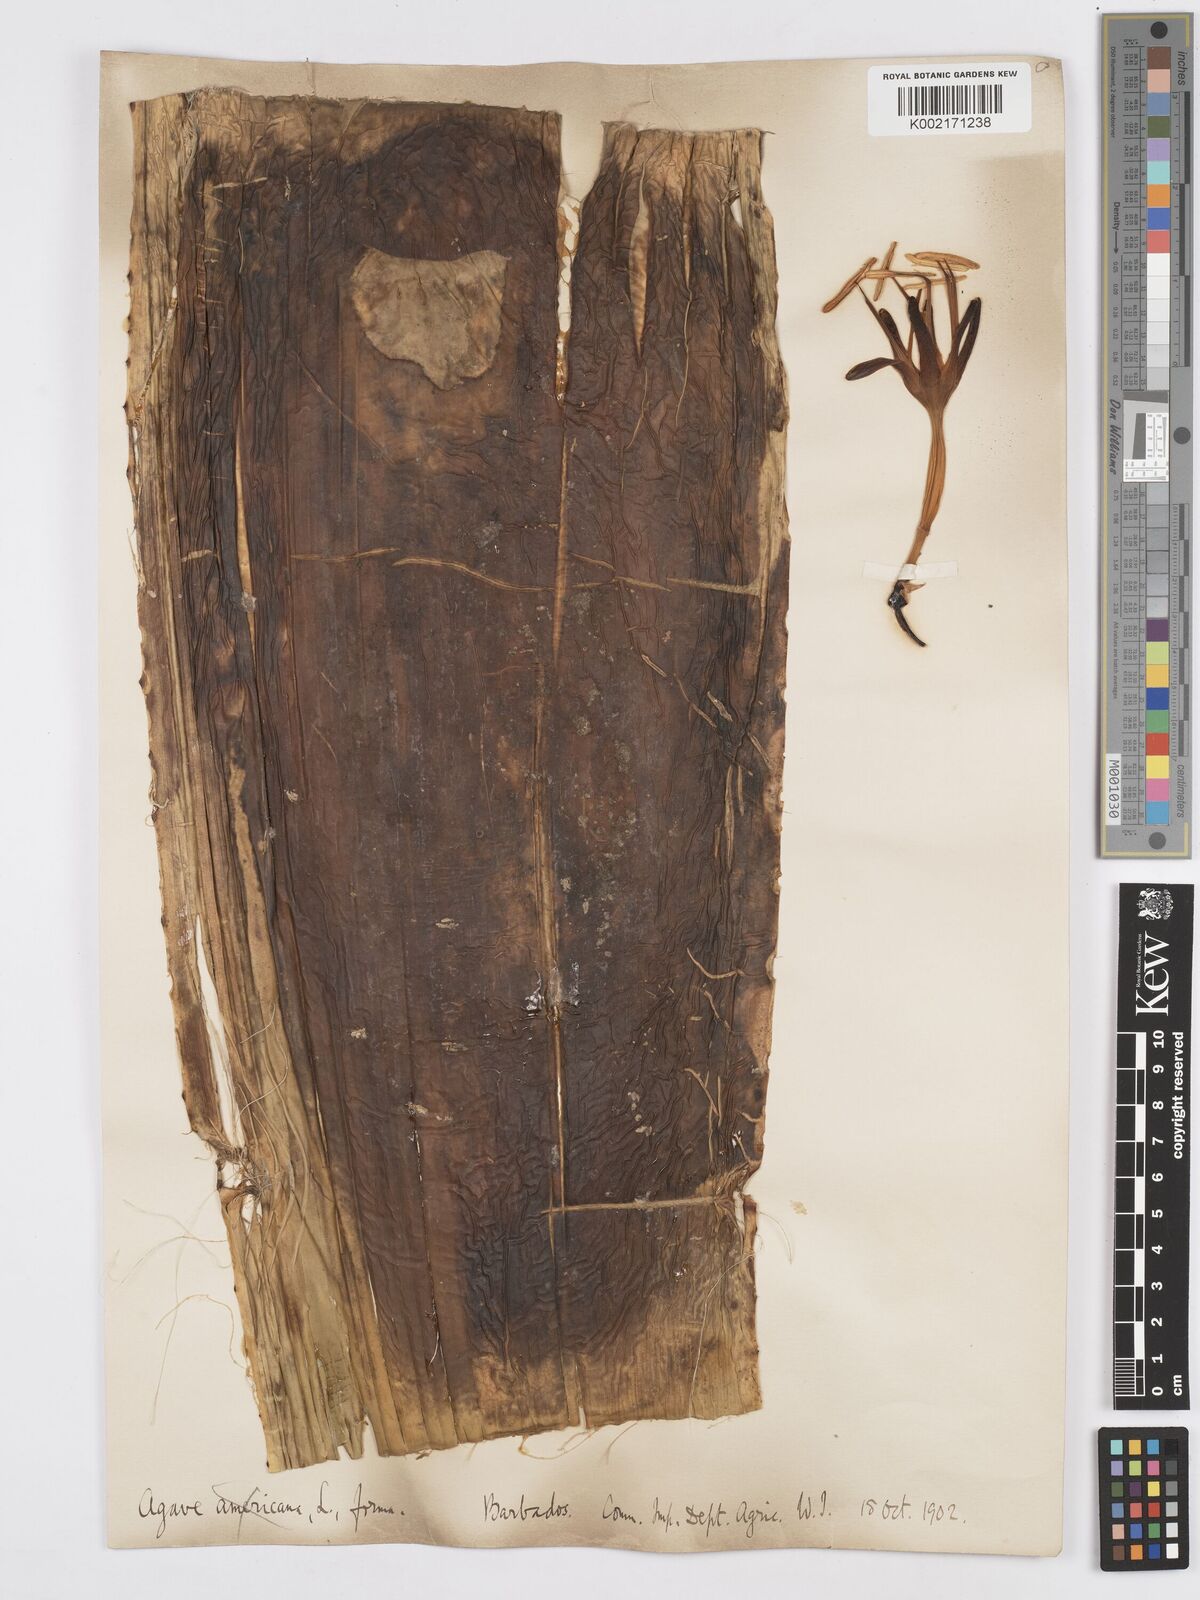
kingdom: Plantae
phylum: Tracheophyta
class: Liliopsida
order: Asparagales
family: Asparagaceae
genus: Agave
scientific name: Agave
